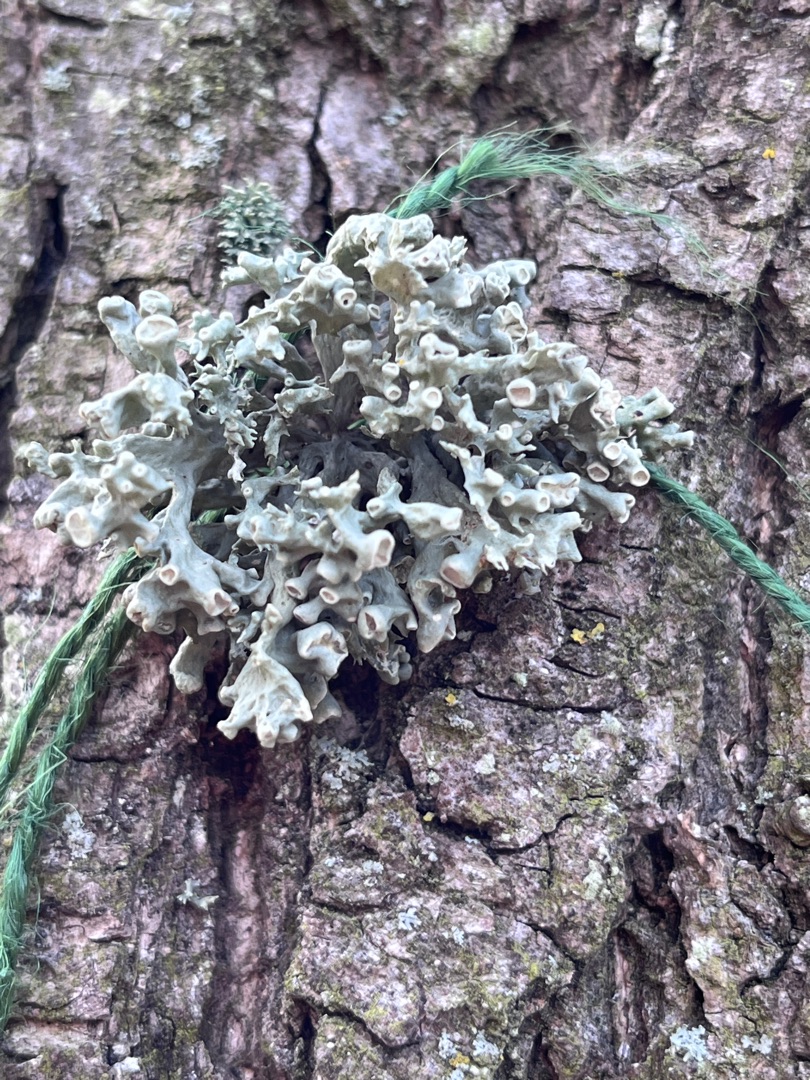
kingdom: Fungi
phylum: Ascomycota
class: Lecanoromycetes
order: Lecanorales
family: Ramalinaceae
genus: Ramalina
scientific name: Ramalina fastigiata
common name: Tue-grenlav
